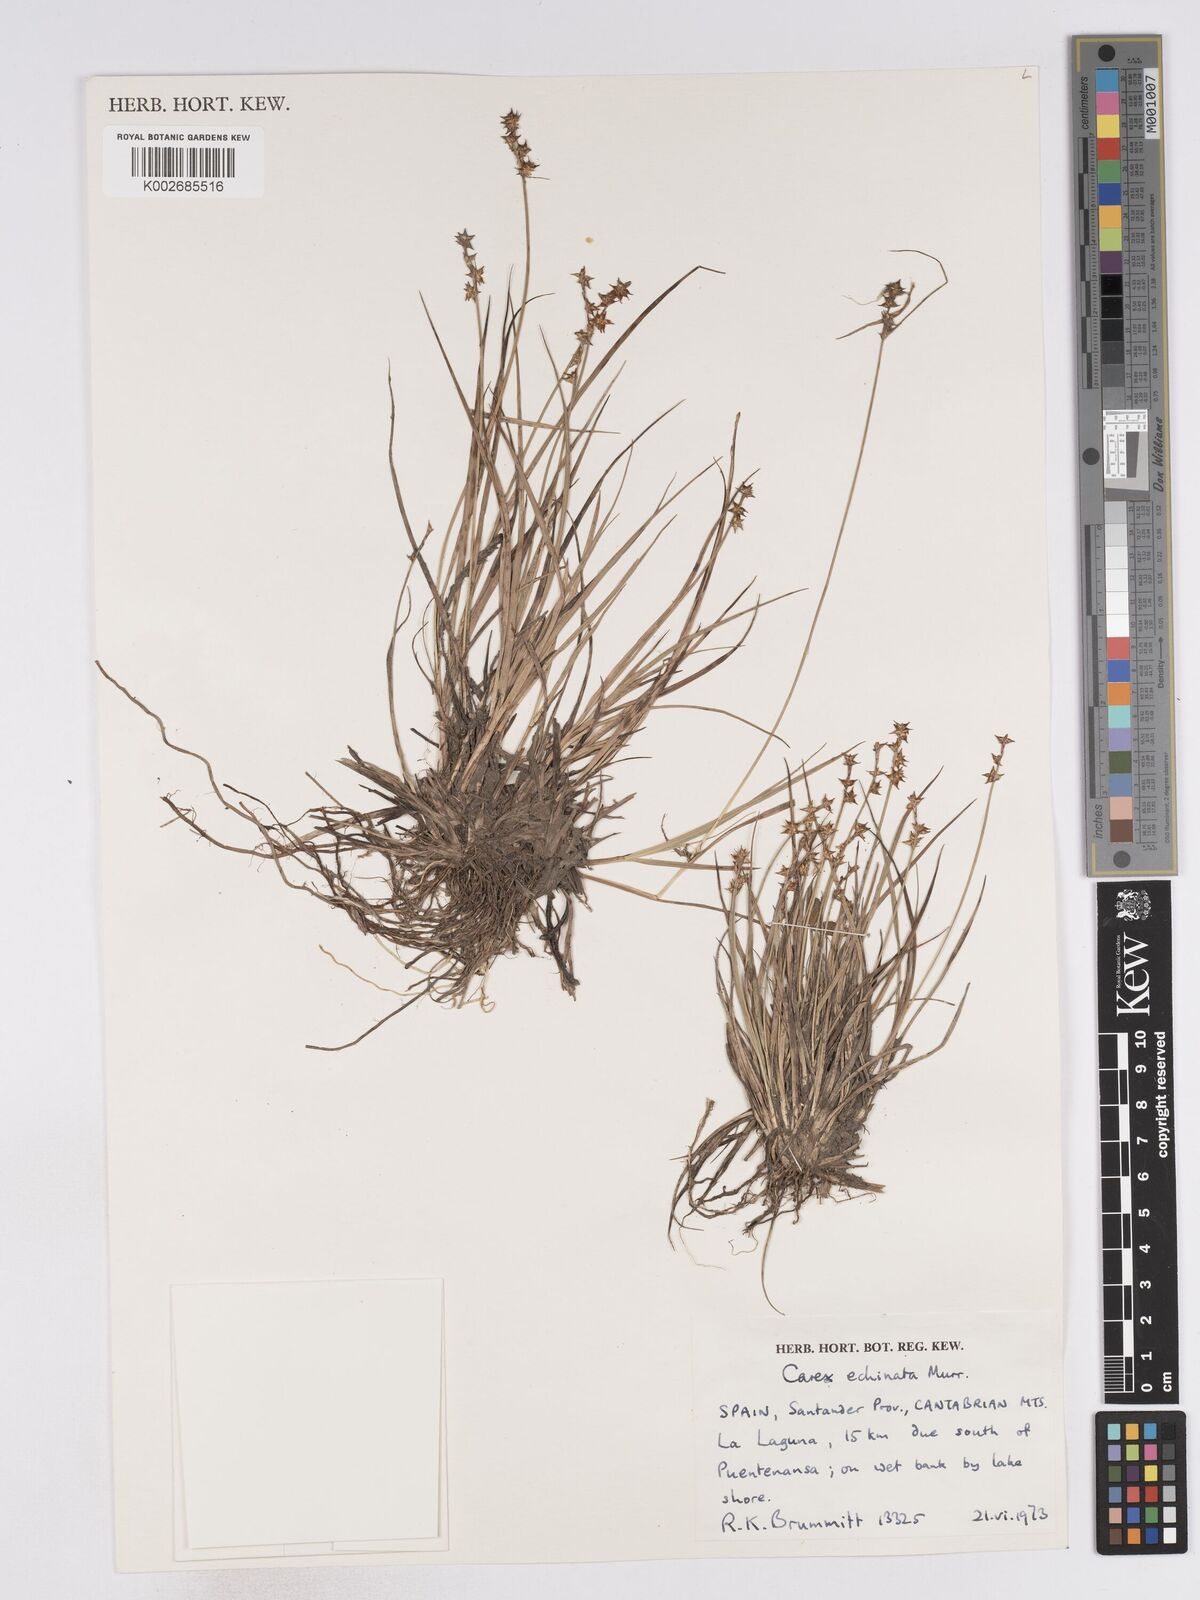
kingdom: Plantae
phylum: Tracheophyta
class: Liliopsida
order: Poales
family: Cyperaceae
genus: Carex
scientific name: Carex echinata
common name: Star sedge
